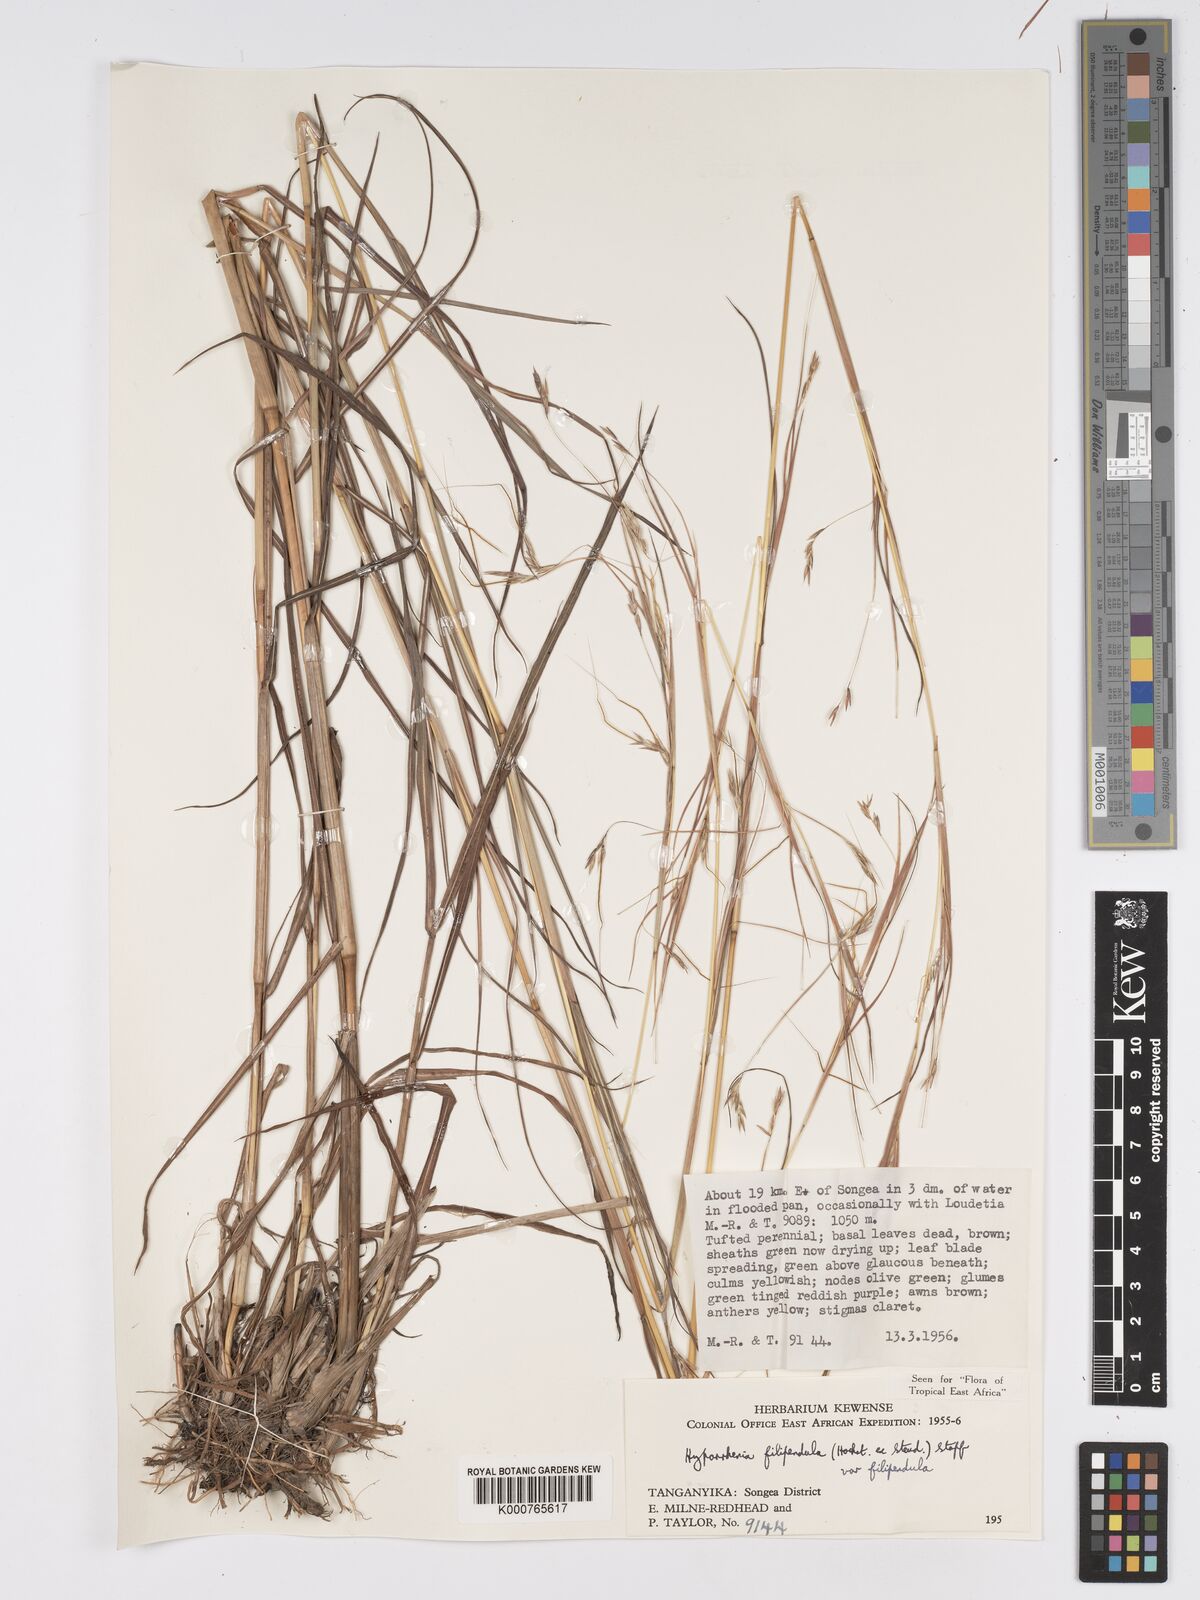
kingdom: Plantae
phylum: Tracheophyta
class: Liliopsida
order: Poales
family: Poaceae
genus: Hyparrhenia
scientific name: Hyparrhenia filipendula
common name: Tambookie grass
